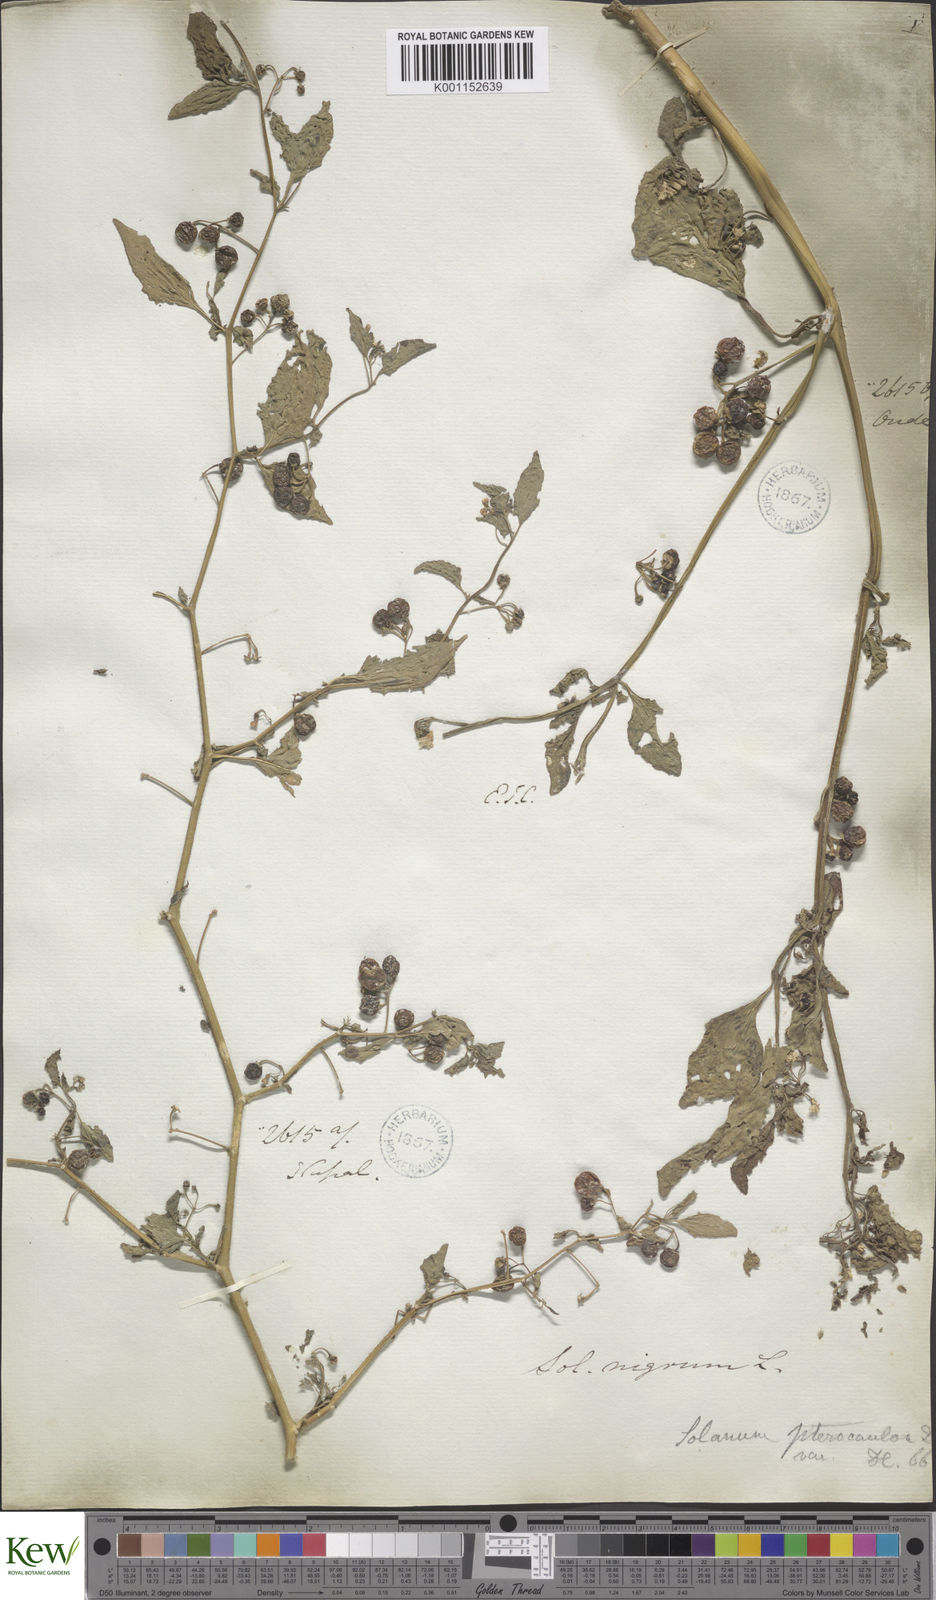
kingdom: Plantae
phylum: Tracheophyta
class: Magnoliopsida
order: Solanales
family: Solanaceae
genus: Solanum
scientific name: Solanum nigrum
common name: Black nightshade
